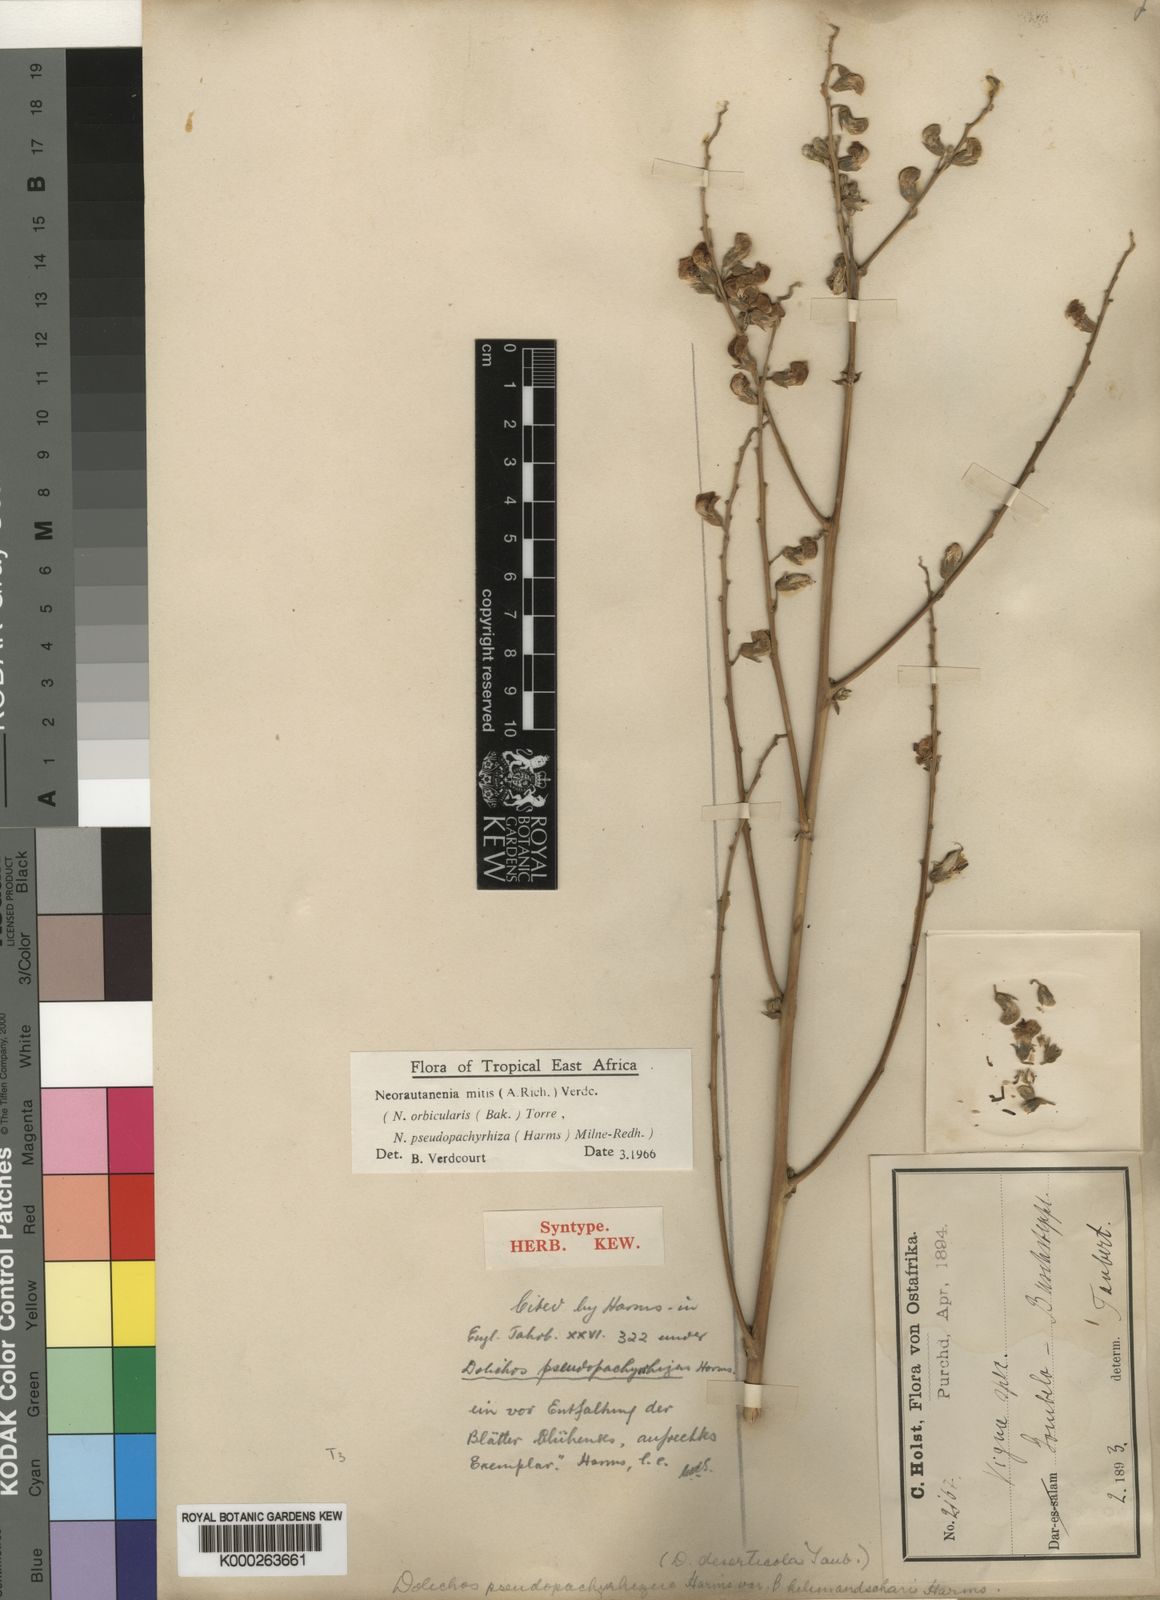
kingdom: Plantae
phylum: Tracheophyta
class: Magnoliopsida
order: Fabales
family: Fabaceae
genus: Neorautanenia
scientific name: Neorautanenia mitis
